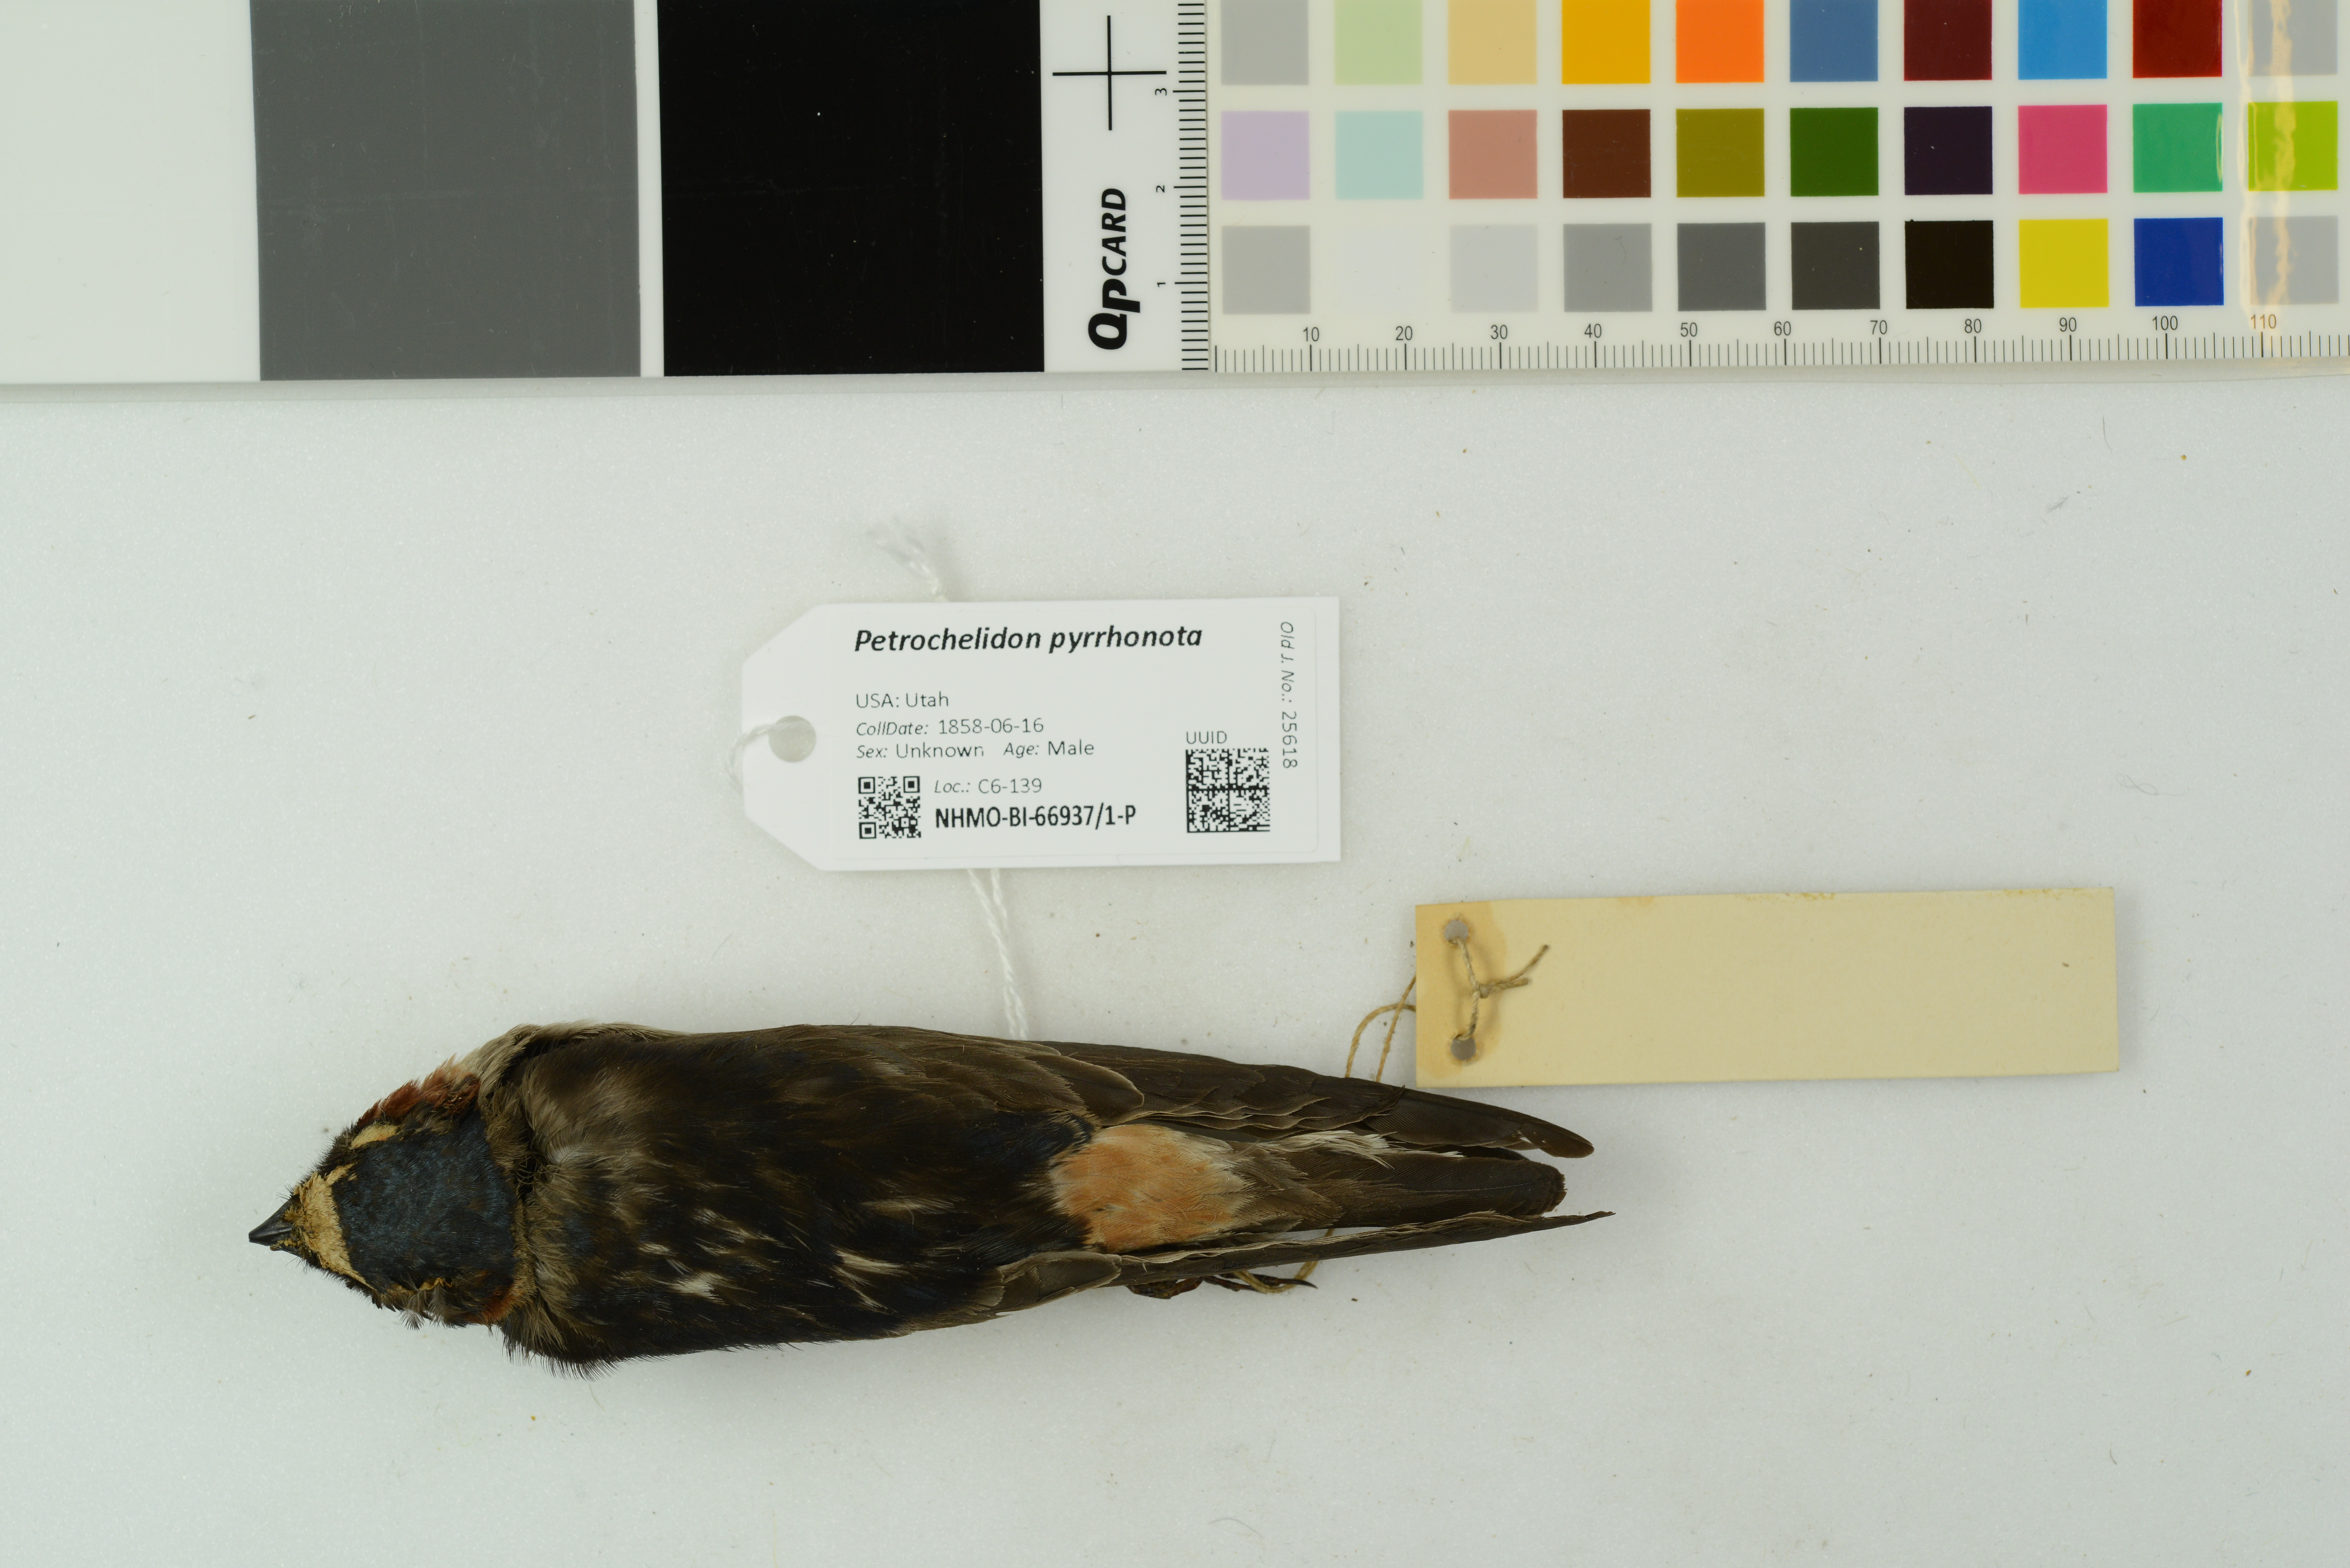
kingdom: Animalia
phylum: Chordata
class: Aves
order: Passeriformes
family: Hirundinidae
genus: Petrochelidon
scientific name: Petrochelidon pyrrhonota
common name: American cliff swallow
